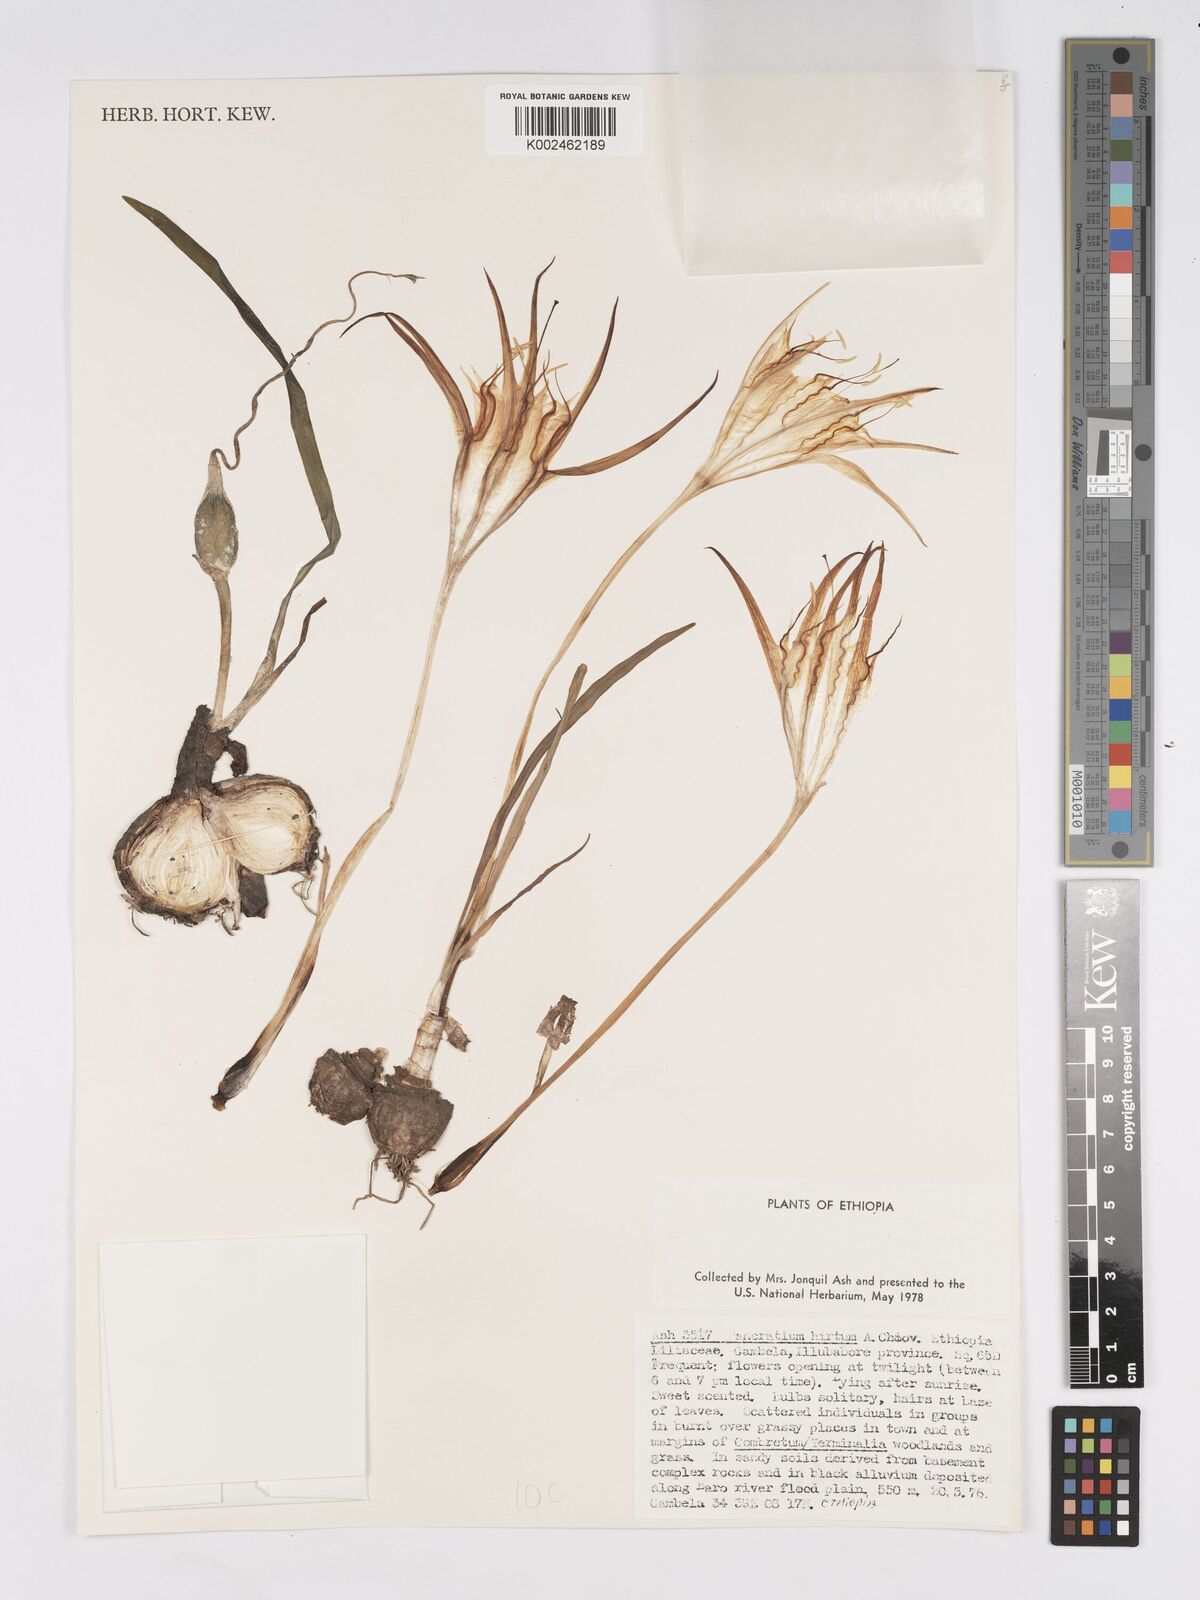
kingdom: Plantae
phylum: Tracheophyta
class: Liliopsida
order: Asparagales
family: Amaryllidaceae
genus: Pancratium
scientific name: Pancratium tenuifolium
